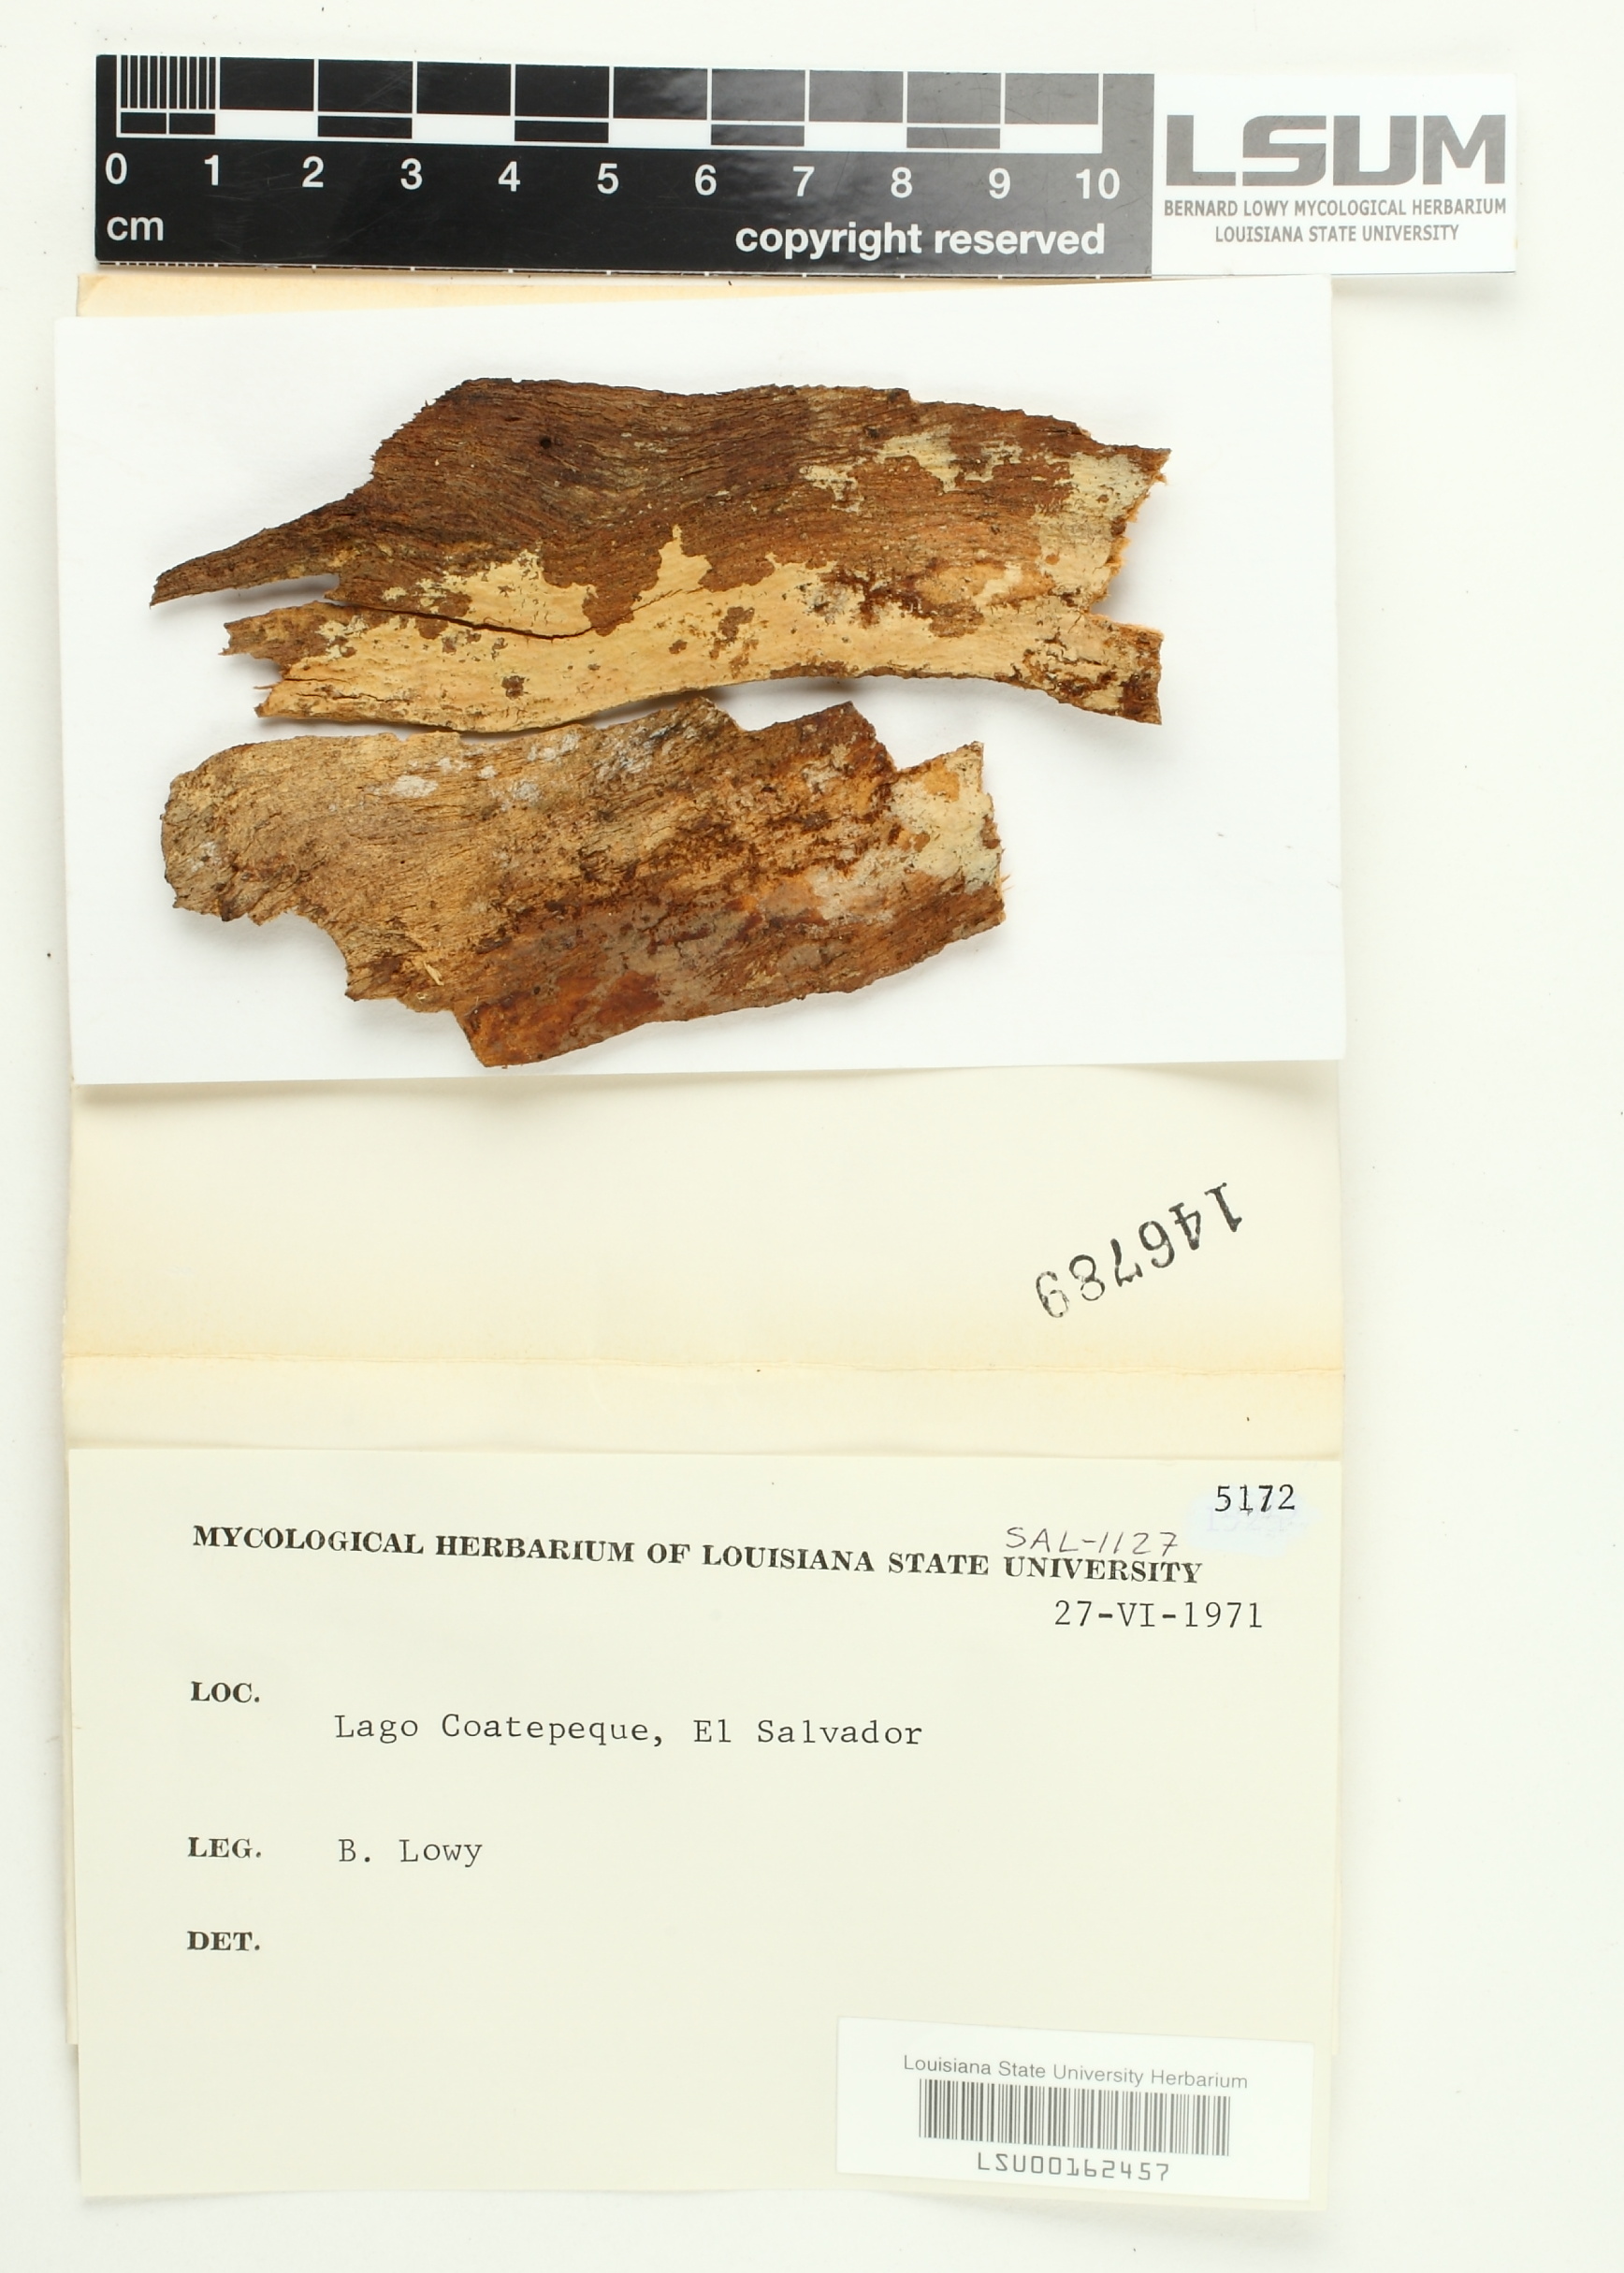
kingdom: Fungi
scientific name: Fungi
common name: Fungi
